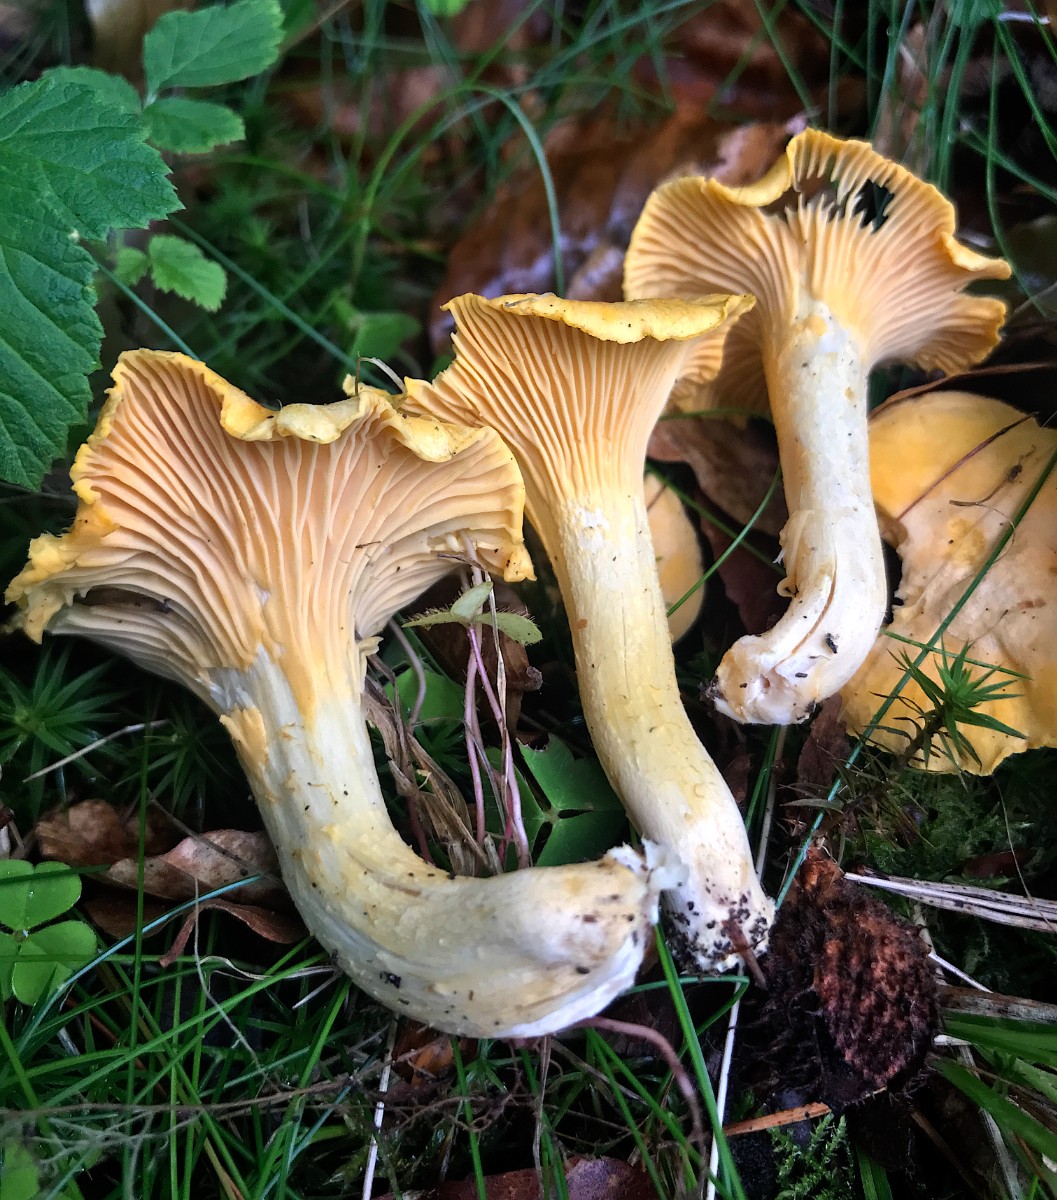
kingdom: Fungi
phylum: Basidiomycota
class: Agaricomycetes
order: Cantharellales
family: Hydnaceae
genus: Cantharellus
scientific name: Cantharellus pallens
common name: bleg kantarel
